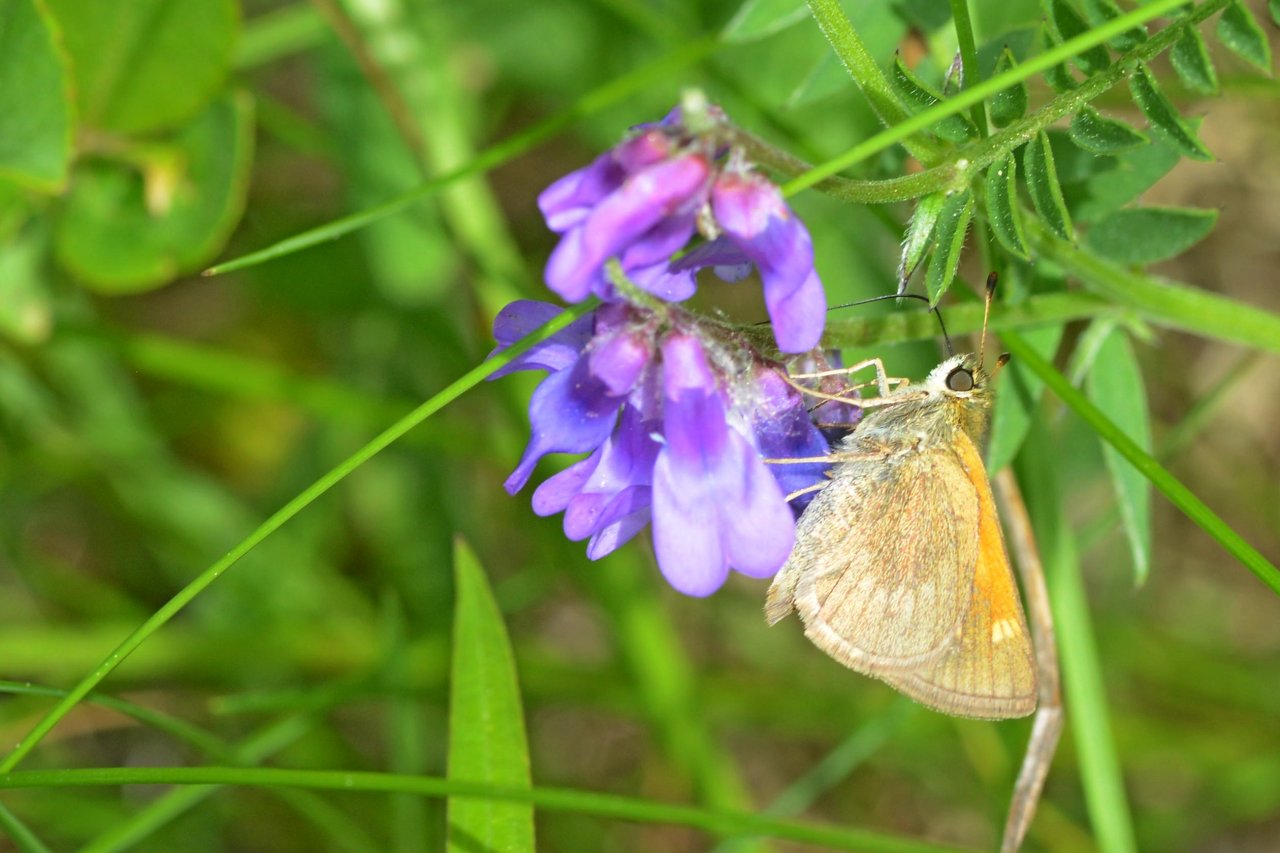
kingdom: Animalia
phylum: Arthropoda
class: Insecta
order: Lepidoptera
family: Hesperiidae
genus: Polites
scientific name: Polites themistocles
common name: Tawny-edged Skipper
